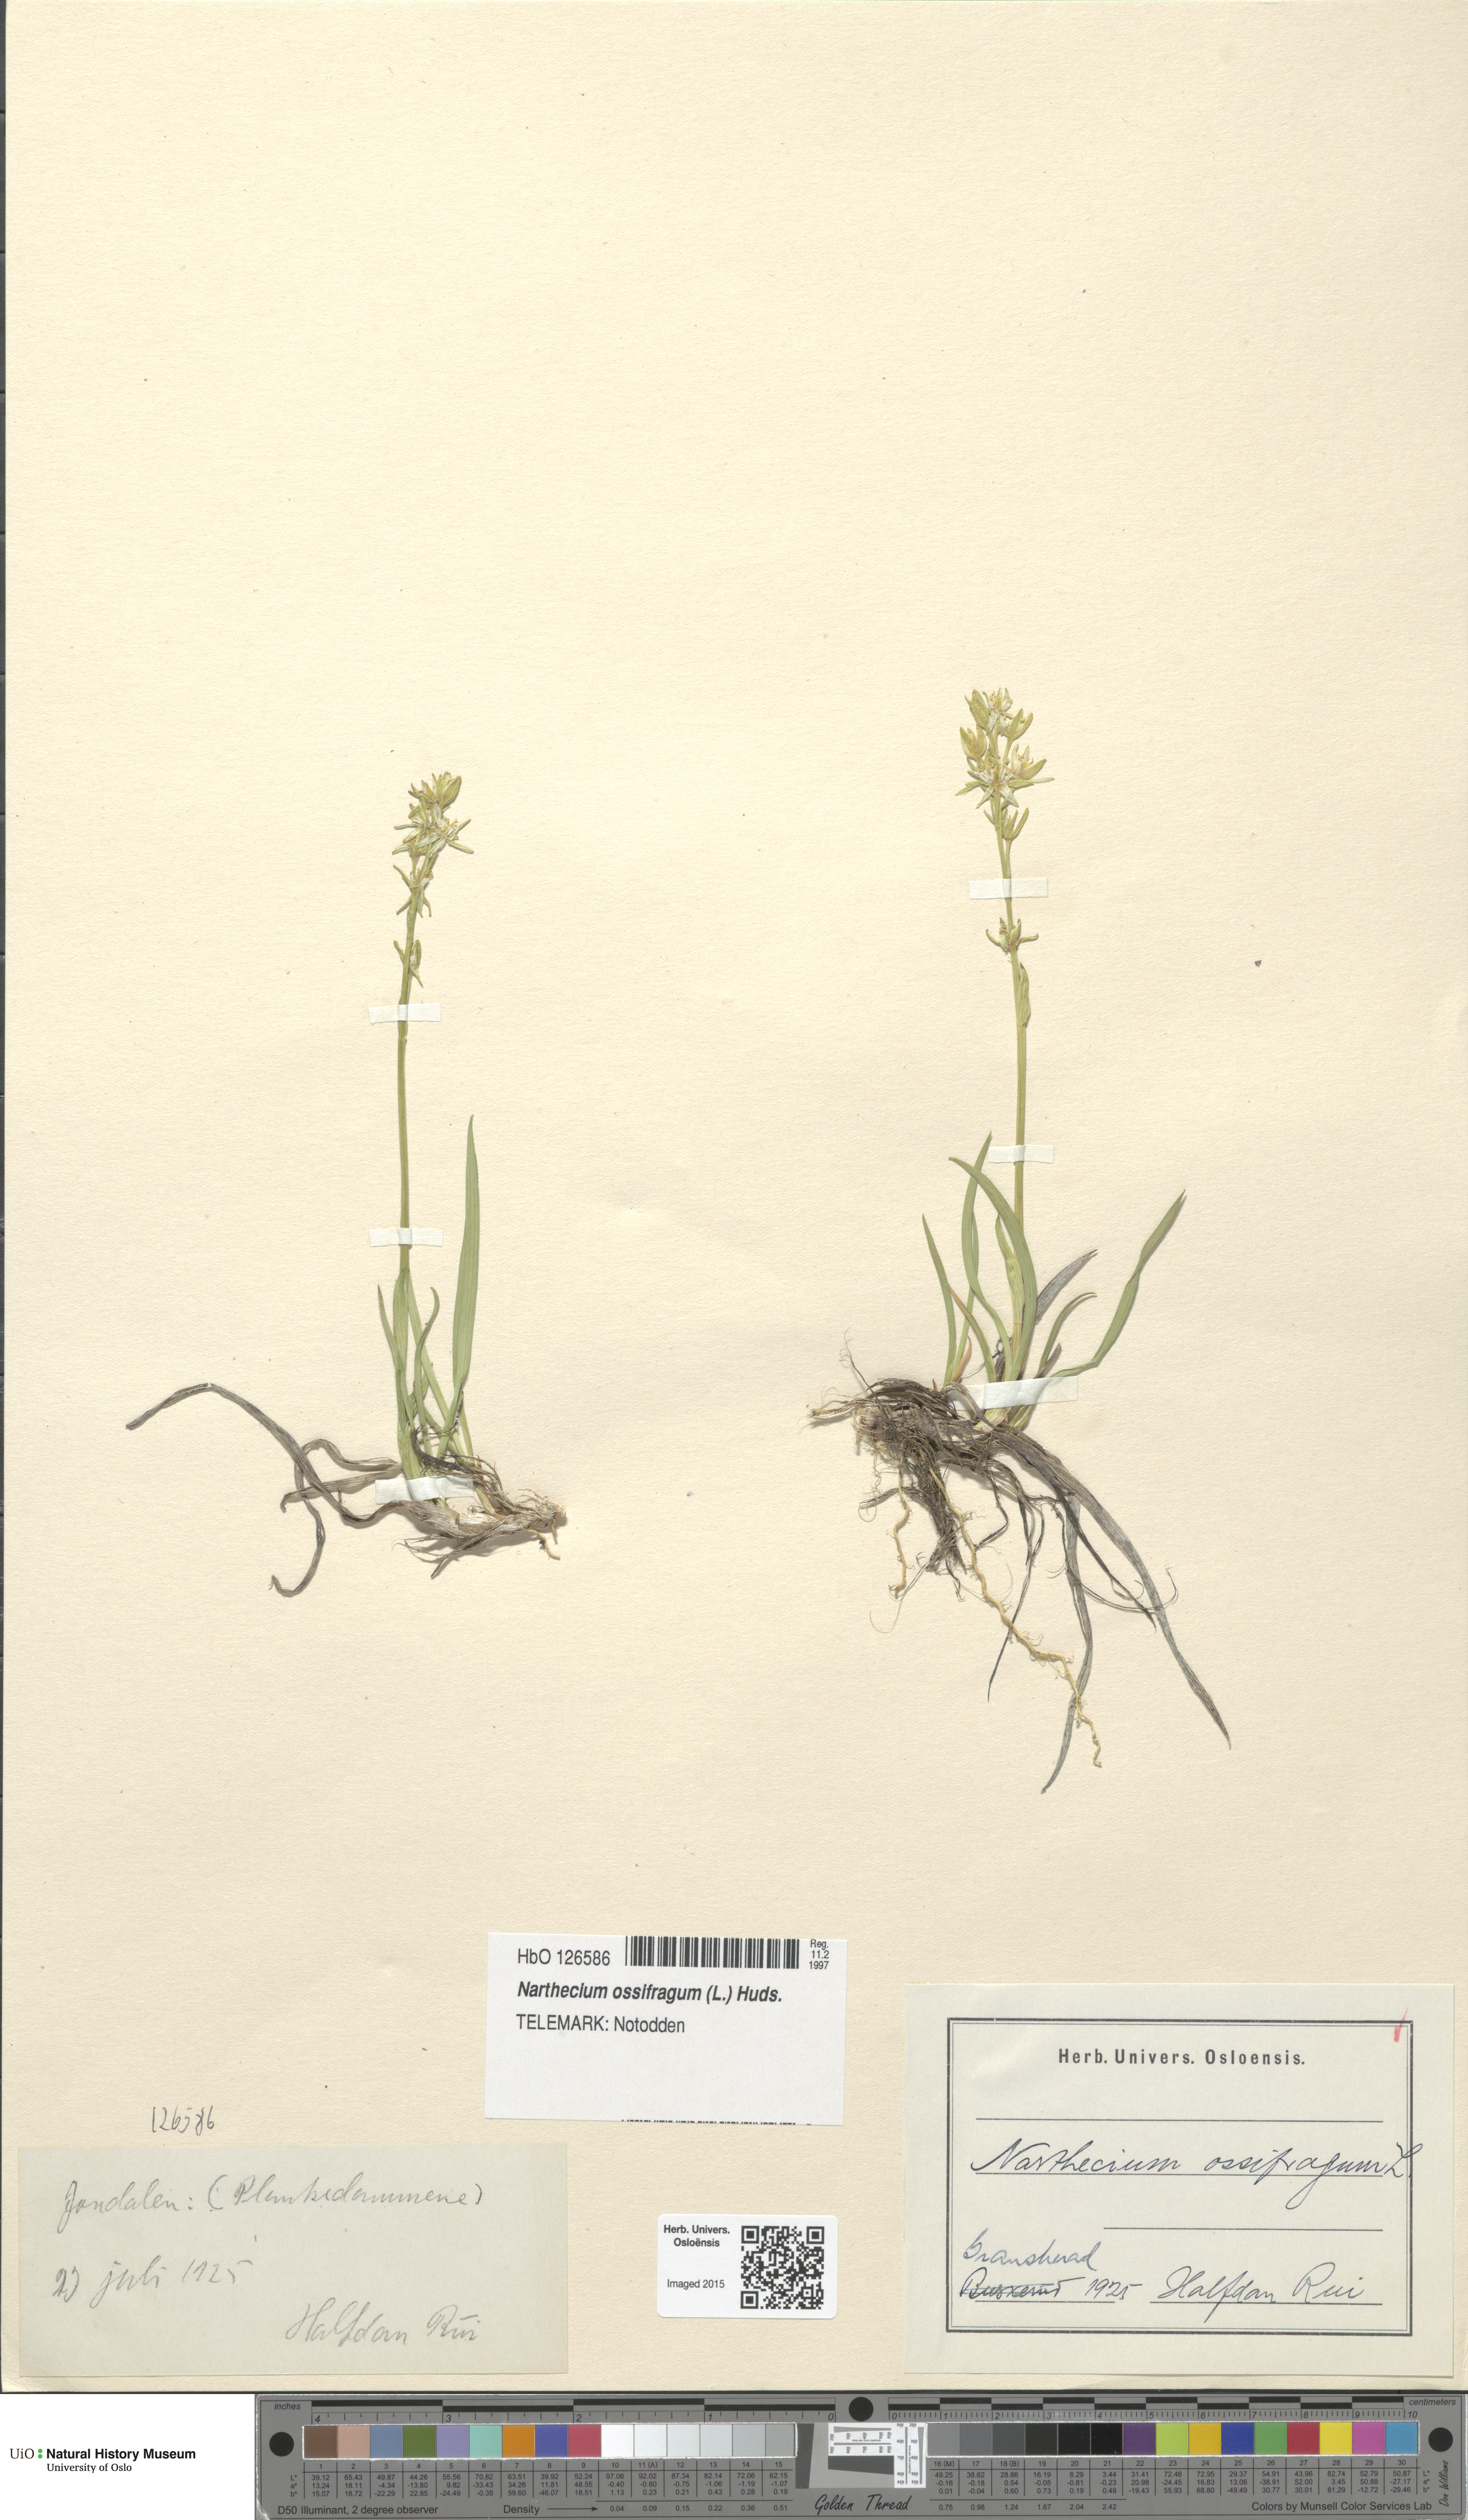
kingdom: Plantae
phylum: Tracheophyta
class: Liliopsida
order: Dioscoreales
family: Nartheciaceae
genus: Narthecium
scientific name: Narthecium ossifragum
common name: Bog asphodel
